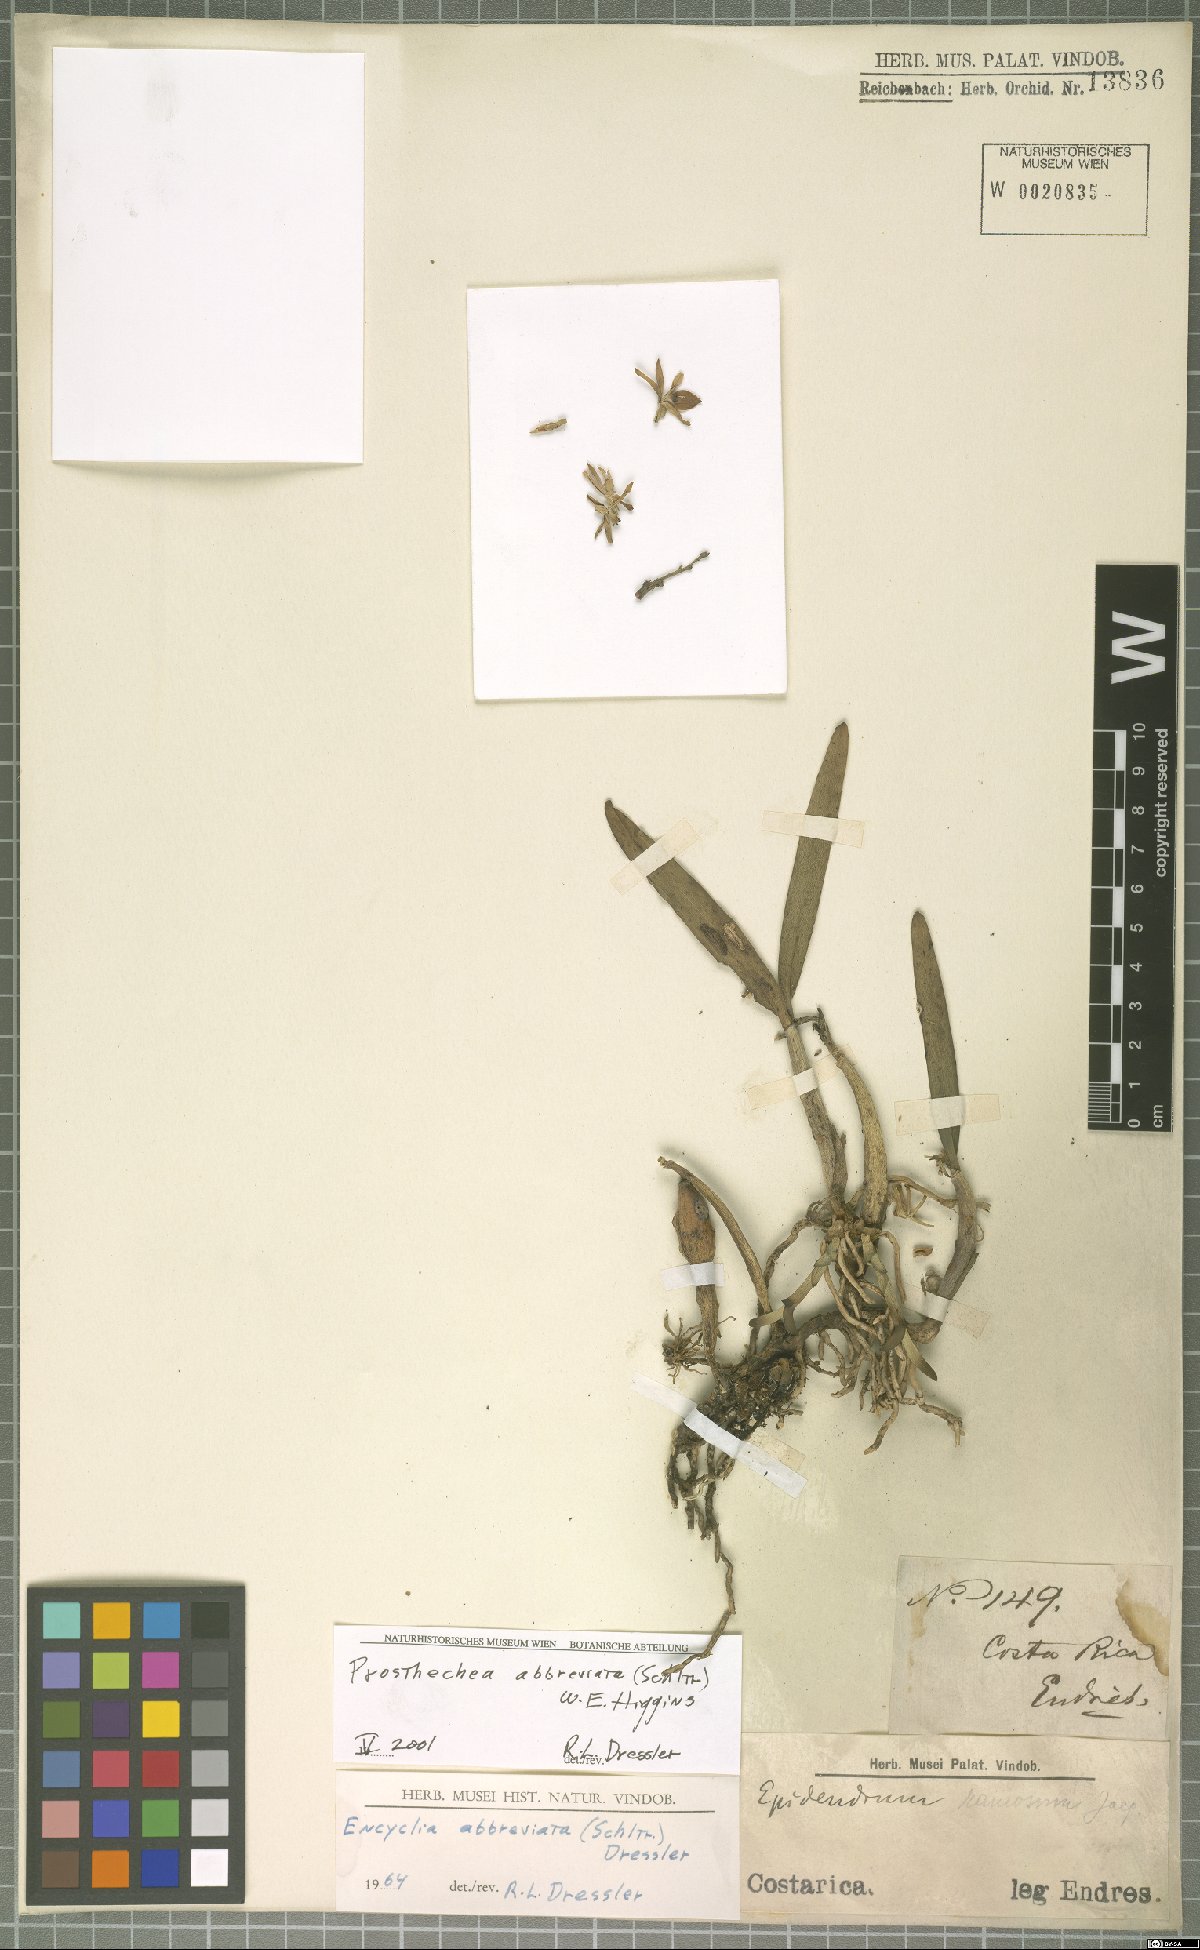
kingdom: Plantae
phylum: Tracheophyta
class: Liliopsida
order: Asparagales
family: Orchidaceae
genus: Prosthechea
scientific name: Prosthechea abbreviata
